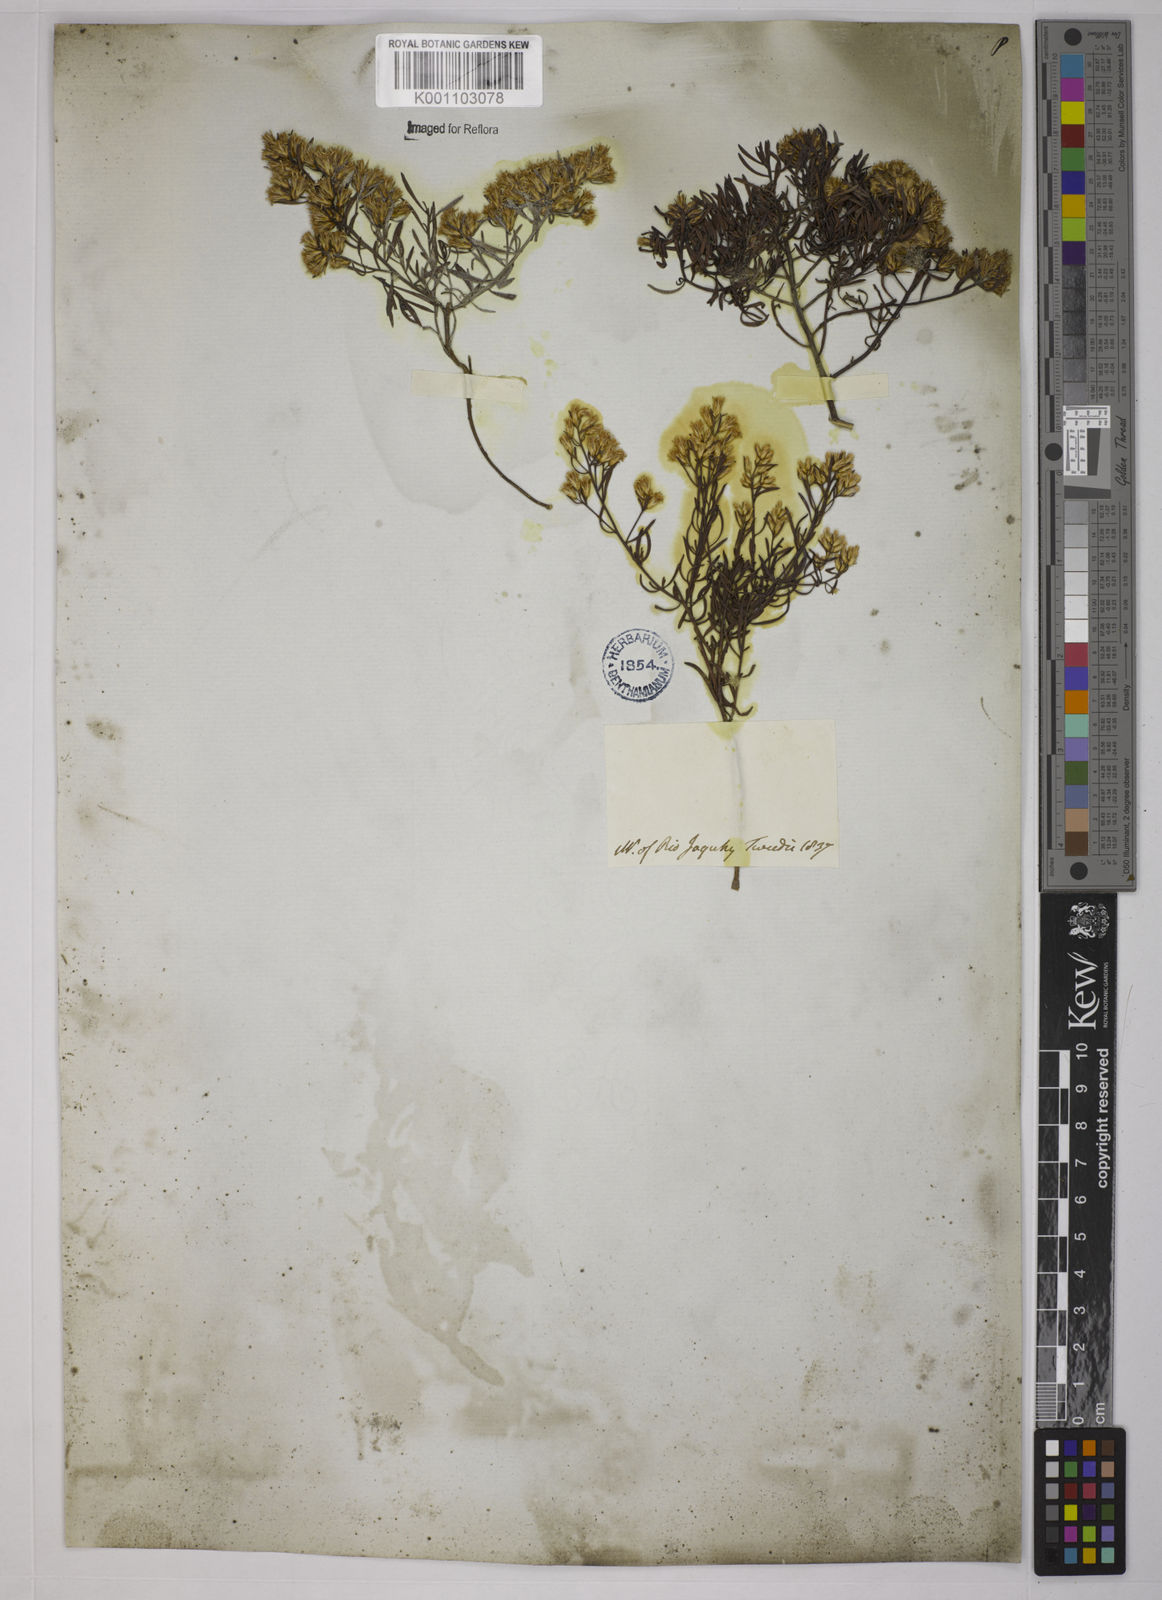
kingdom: Plantae
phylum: Tracheophyta
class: Magnoliopsida
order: Asterales
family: Asteraceae
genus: Baccharis
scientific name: Baccharis leptocephala
